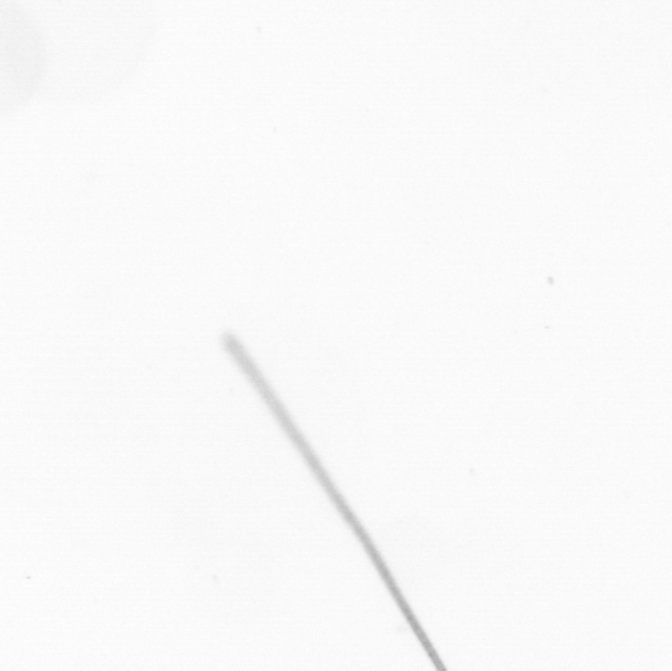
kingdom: Chromista
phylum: Ochrophyta
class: Bacillariophyceae
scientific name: Bacillariophyceae
